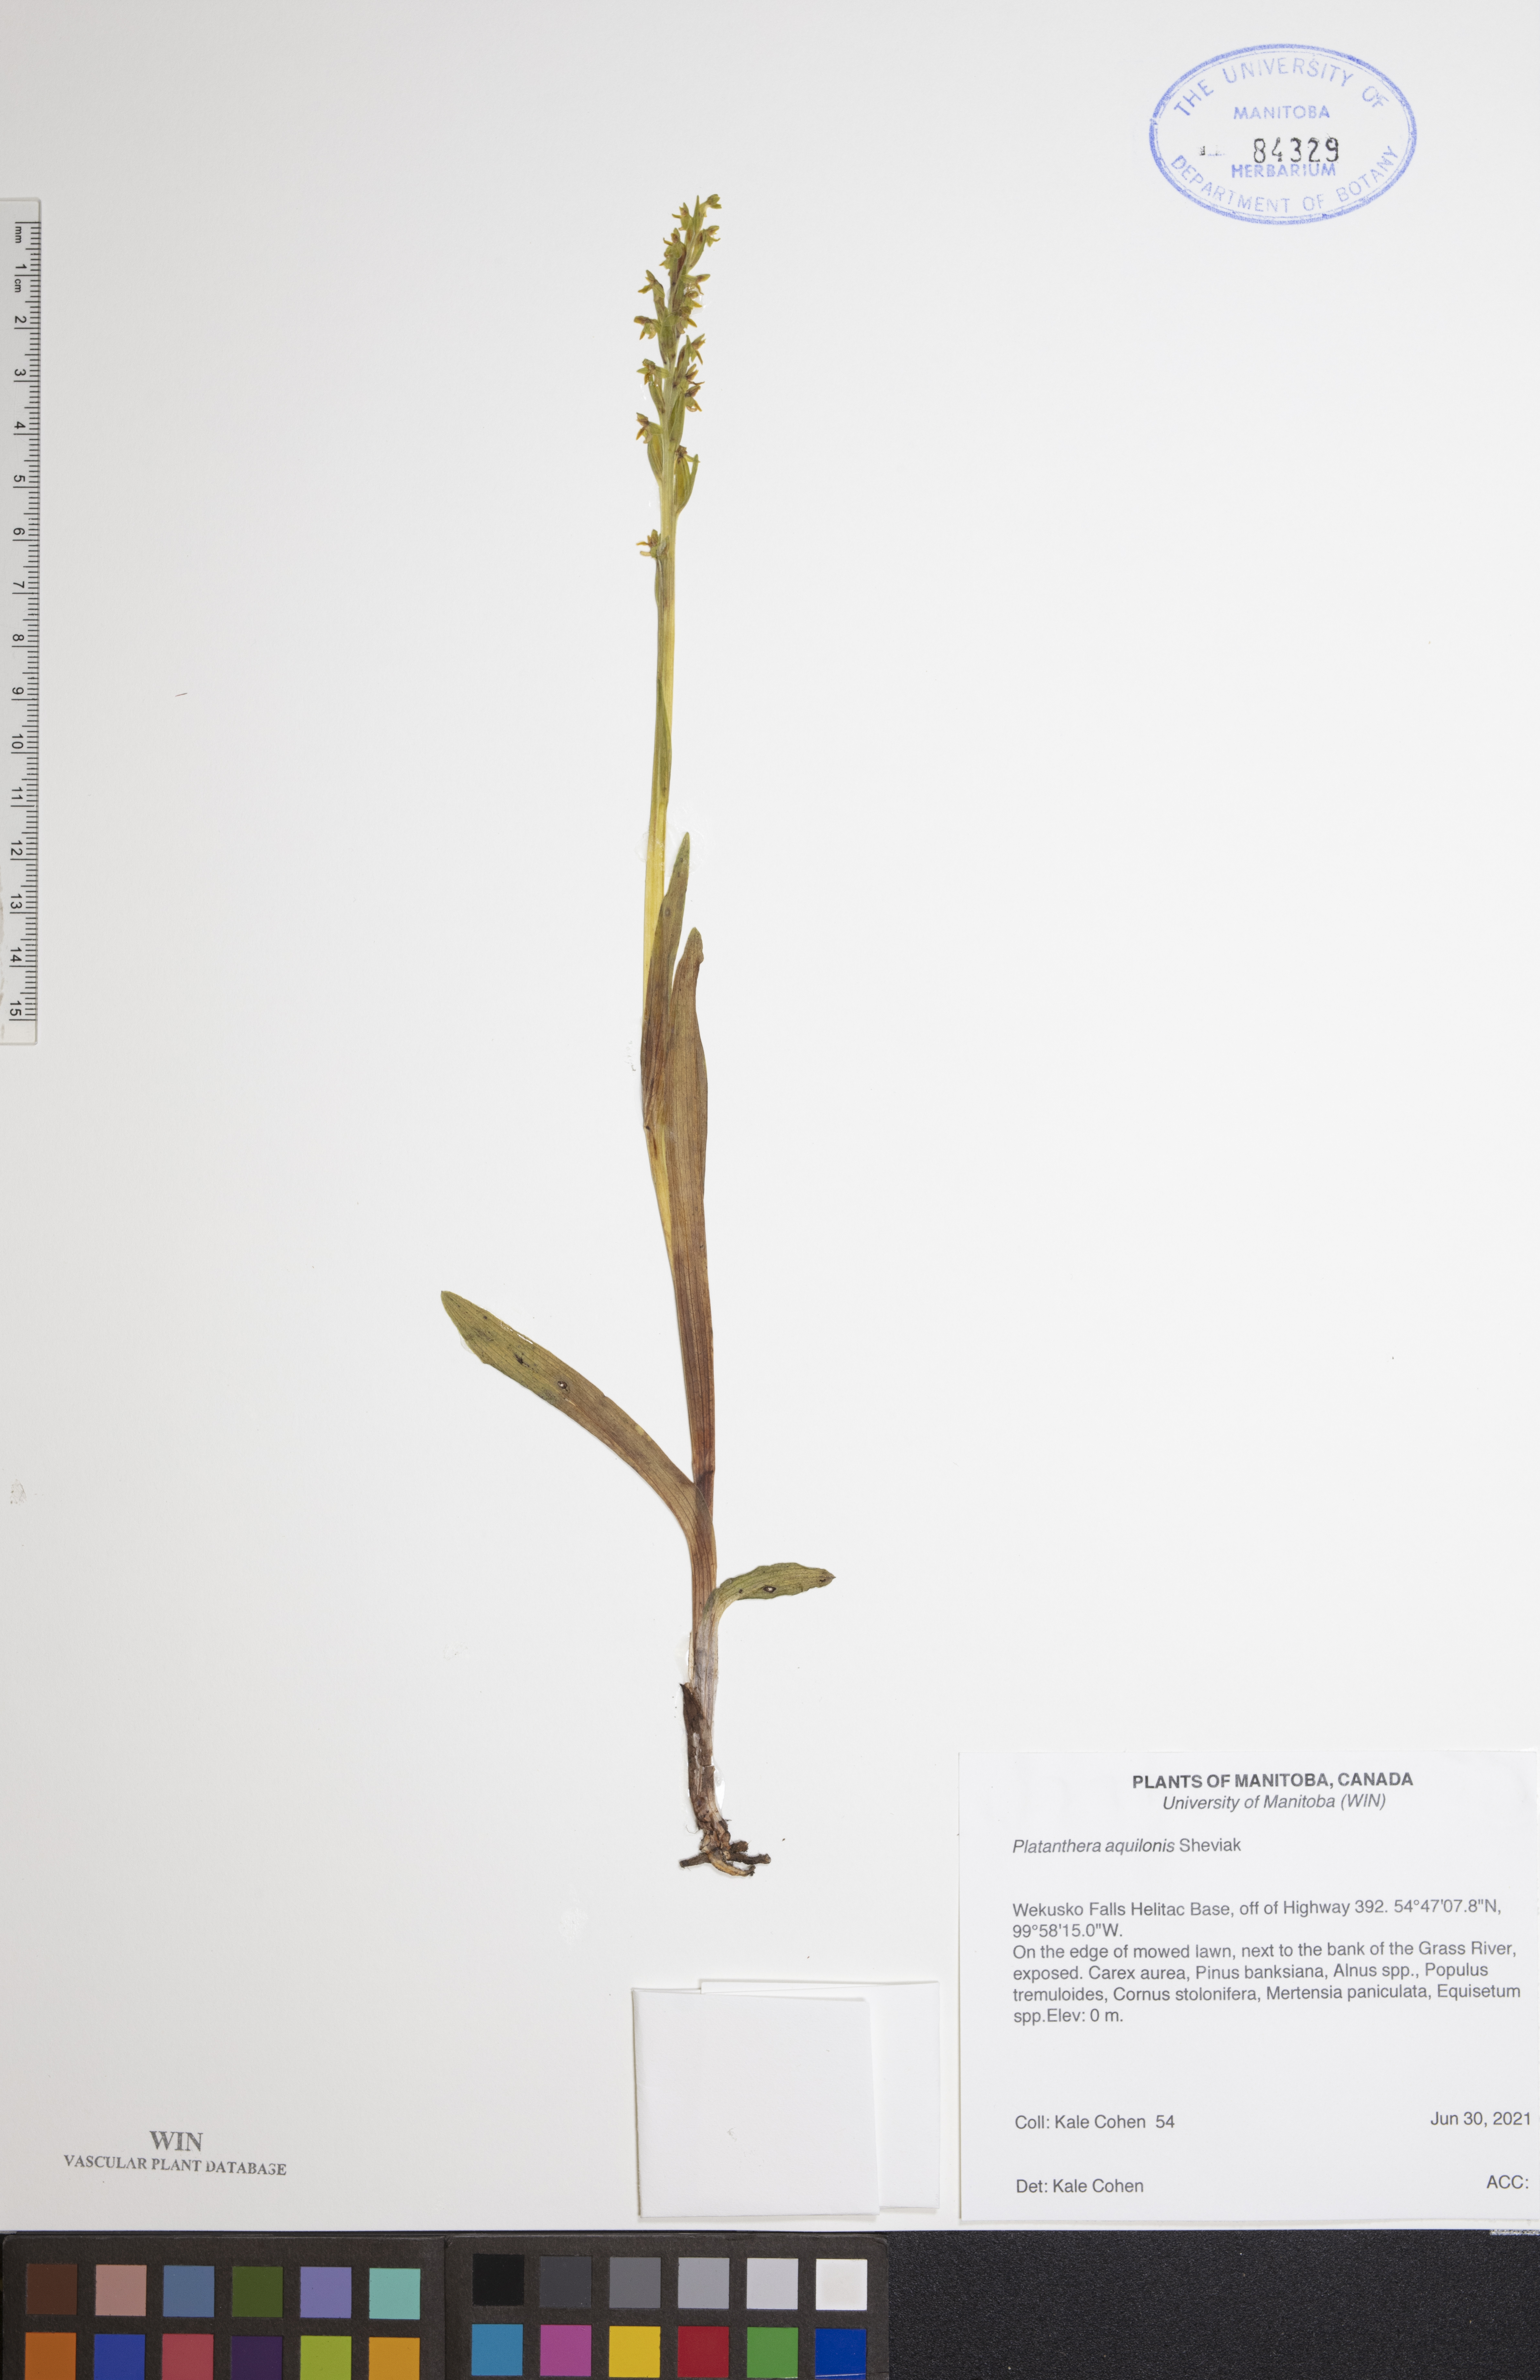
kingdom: Plantae
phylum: Tracheophyta
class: Liliopsida
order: Asparagales
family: Orchidaceae
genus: Platanthera
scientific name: Platanthera aquilonis
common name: Northern green orchid
